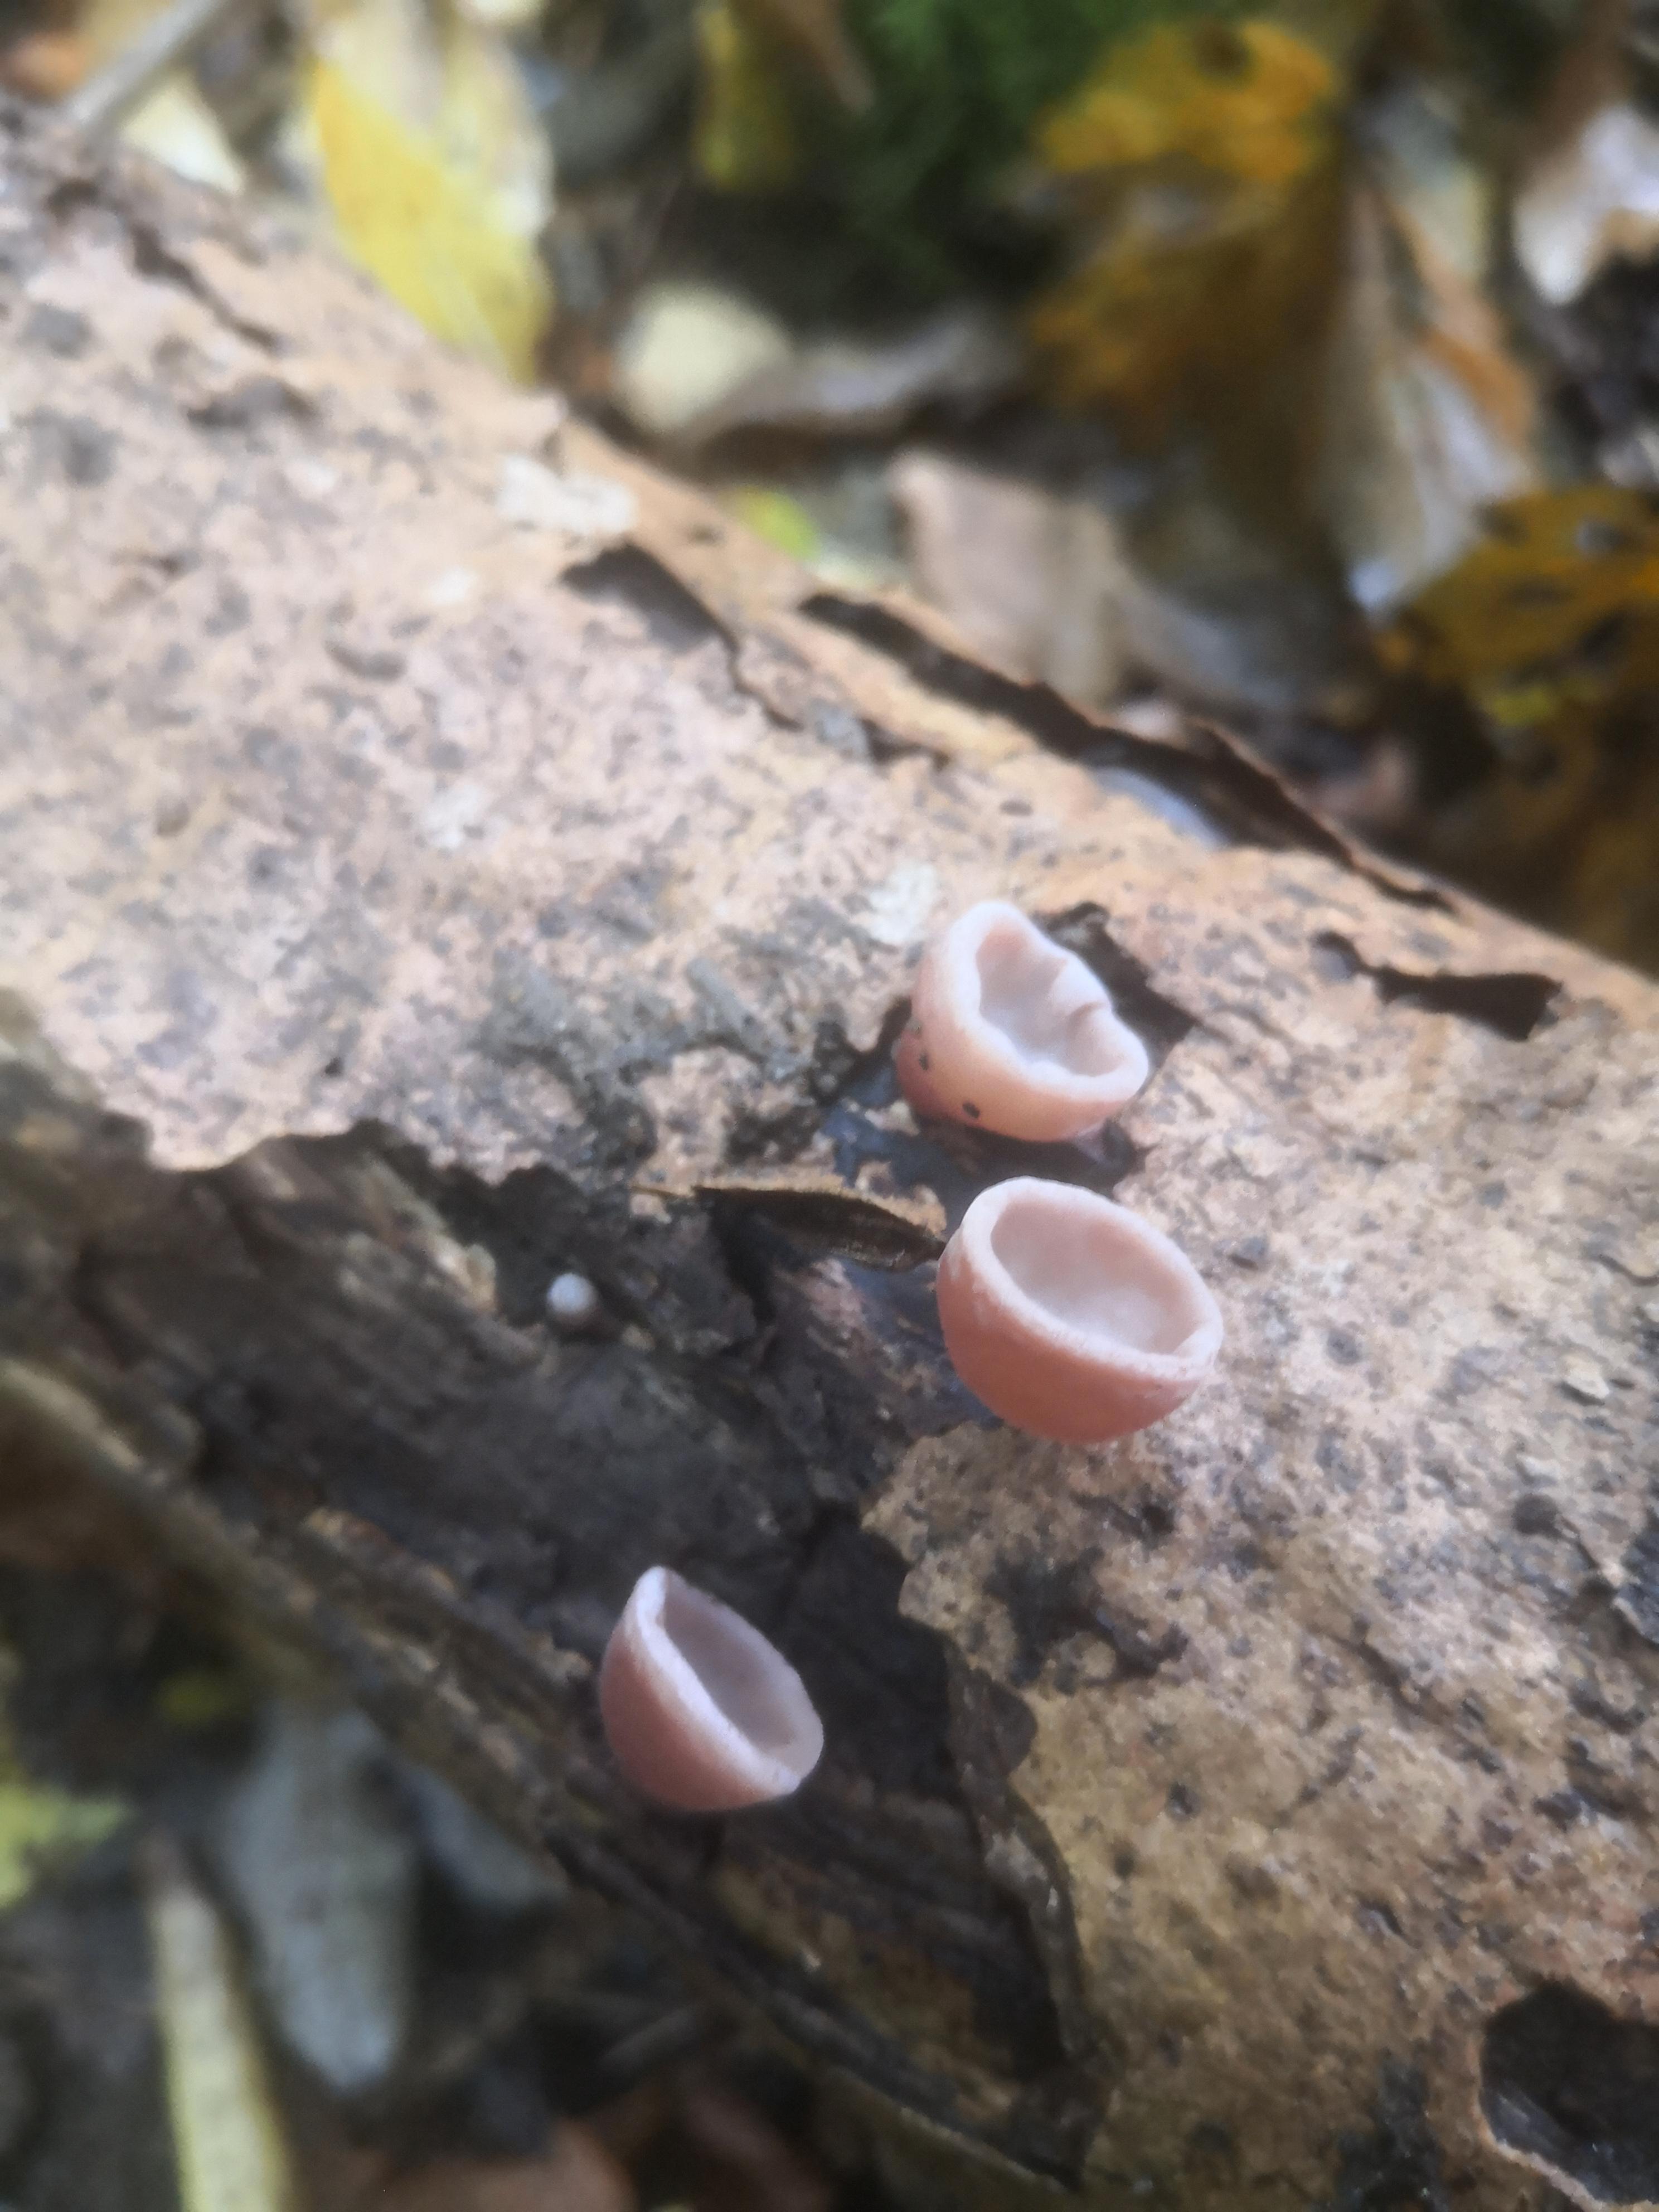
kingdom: Fungi
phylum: Basidiomycota
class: Agaricomycetes
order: Auriculariales
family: Auriculariaceae
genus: Auricularia
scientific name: Auricularia auricula-judae
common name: almindelig judasøre
